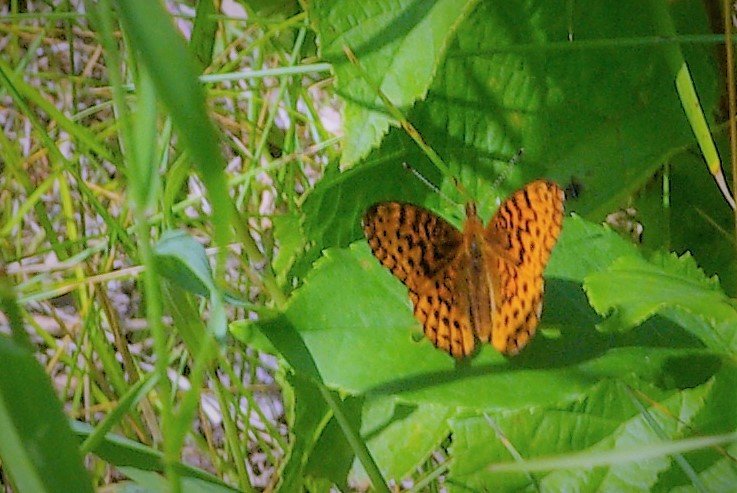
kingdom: Animalia
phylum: Arthropoda
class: Insecta
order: Lepidoptera
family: Nymphalidae
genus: Clossiana
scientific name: Clossiana toddi
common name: Meadow Fritillary
